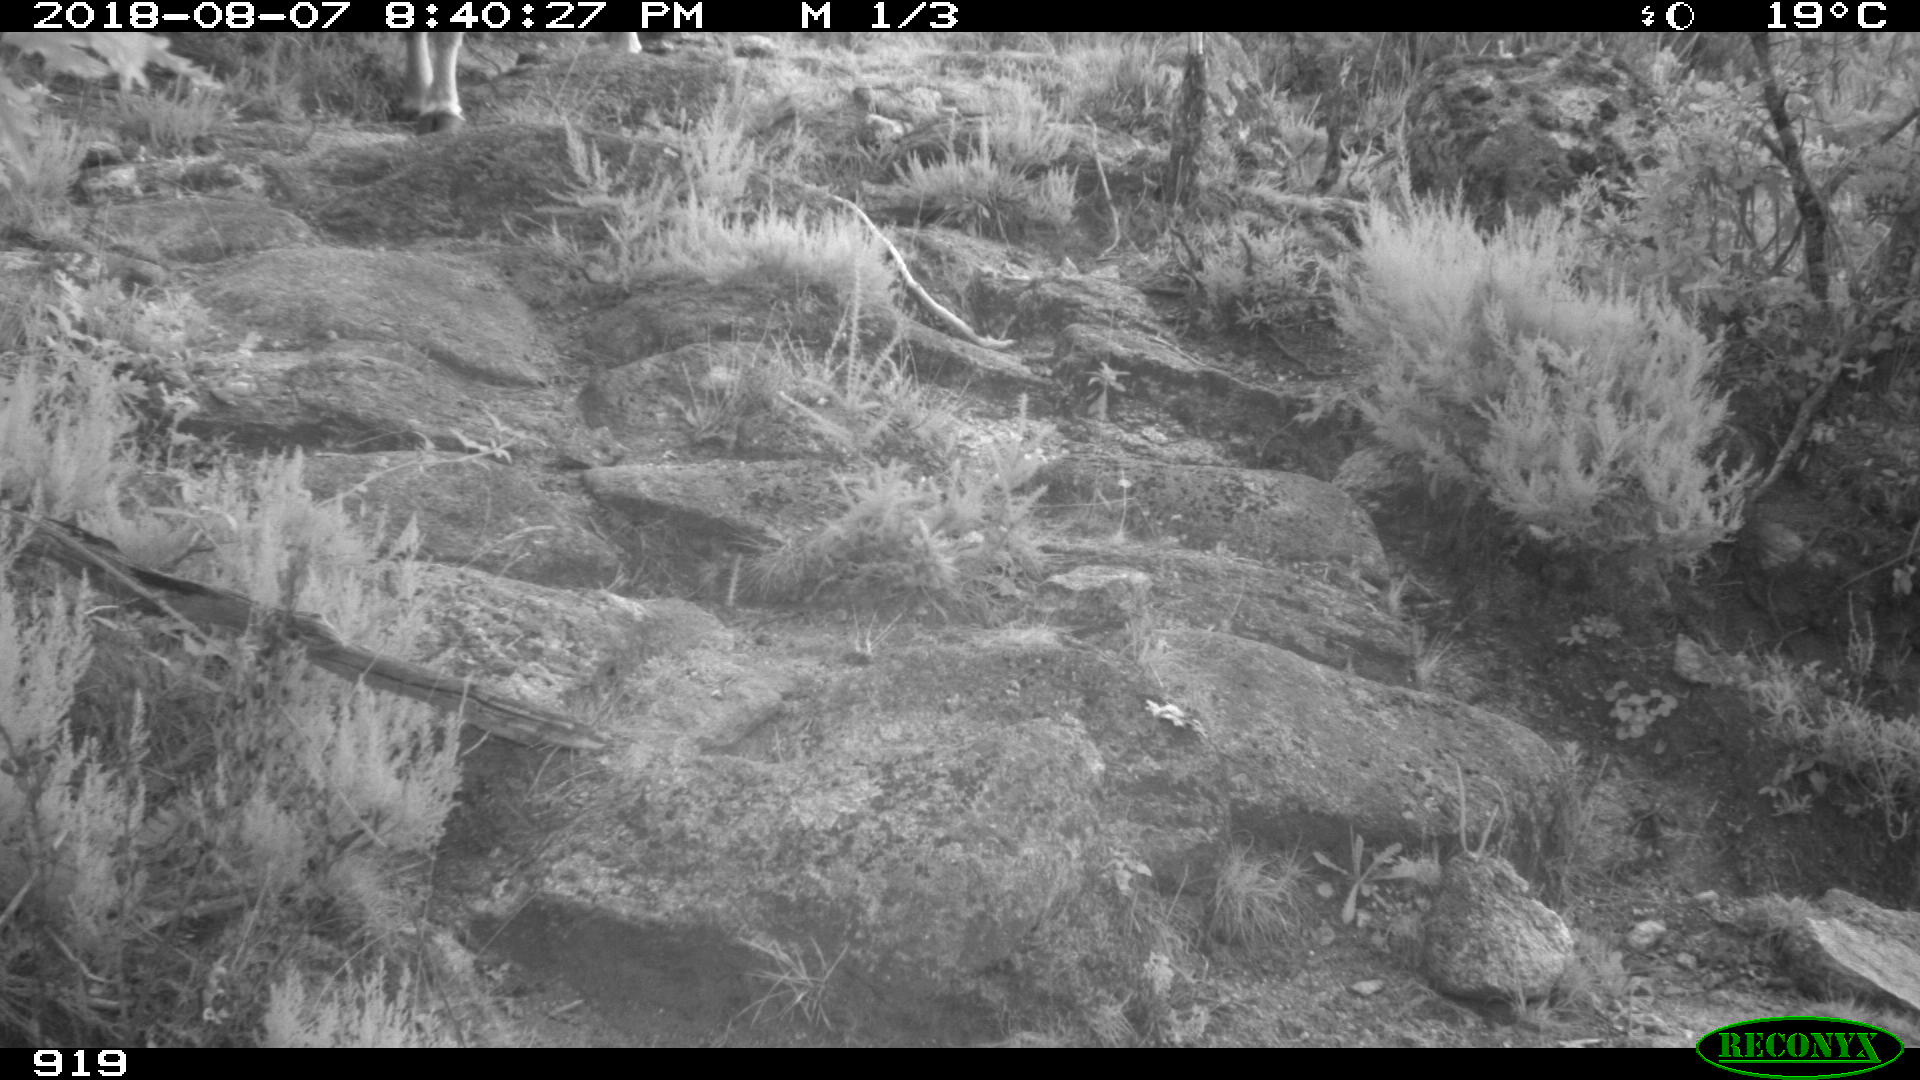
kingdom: Animalia
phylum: Chordata
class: Mammalia
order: Artiodactyla
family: Bovidae
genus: Bos
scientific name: Bos taurus
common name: Domesticated cattle
